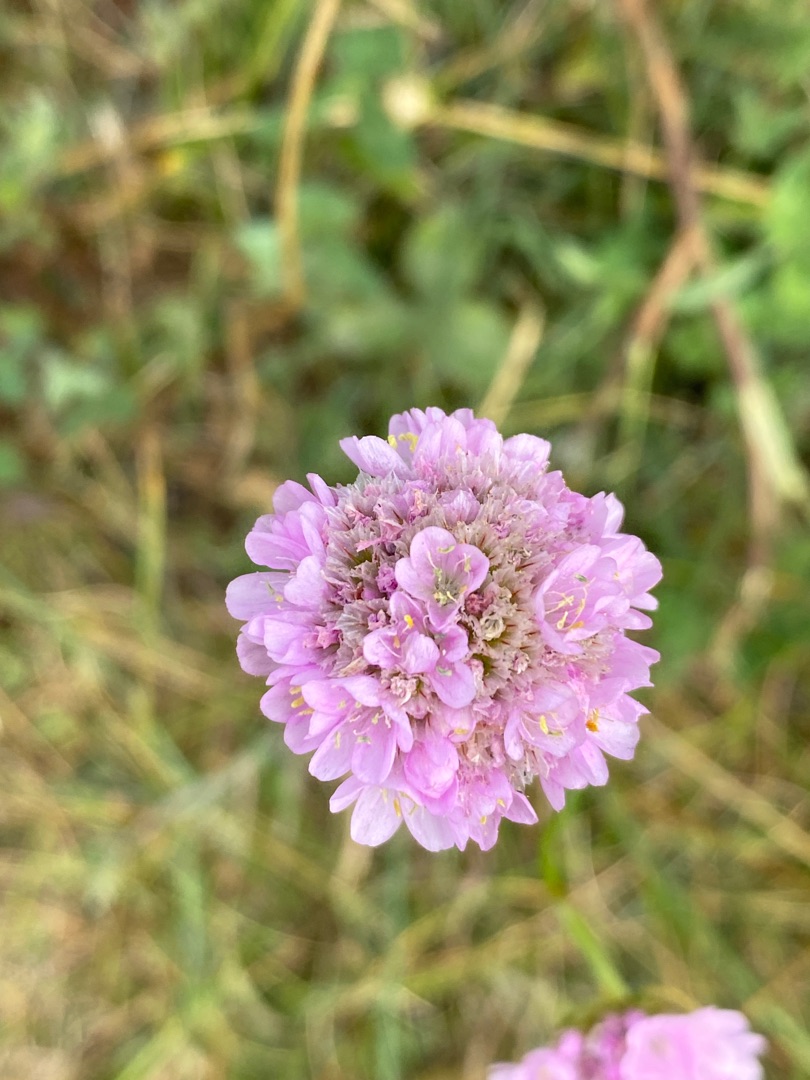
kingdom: Plantae
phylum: Tracheophyta
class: Magnoliopsida
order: Caryophyllales
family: Plumbaginaceae
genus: Armeria
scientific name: Armeria maritima
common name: Engelskgræs
